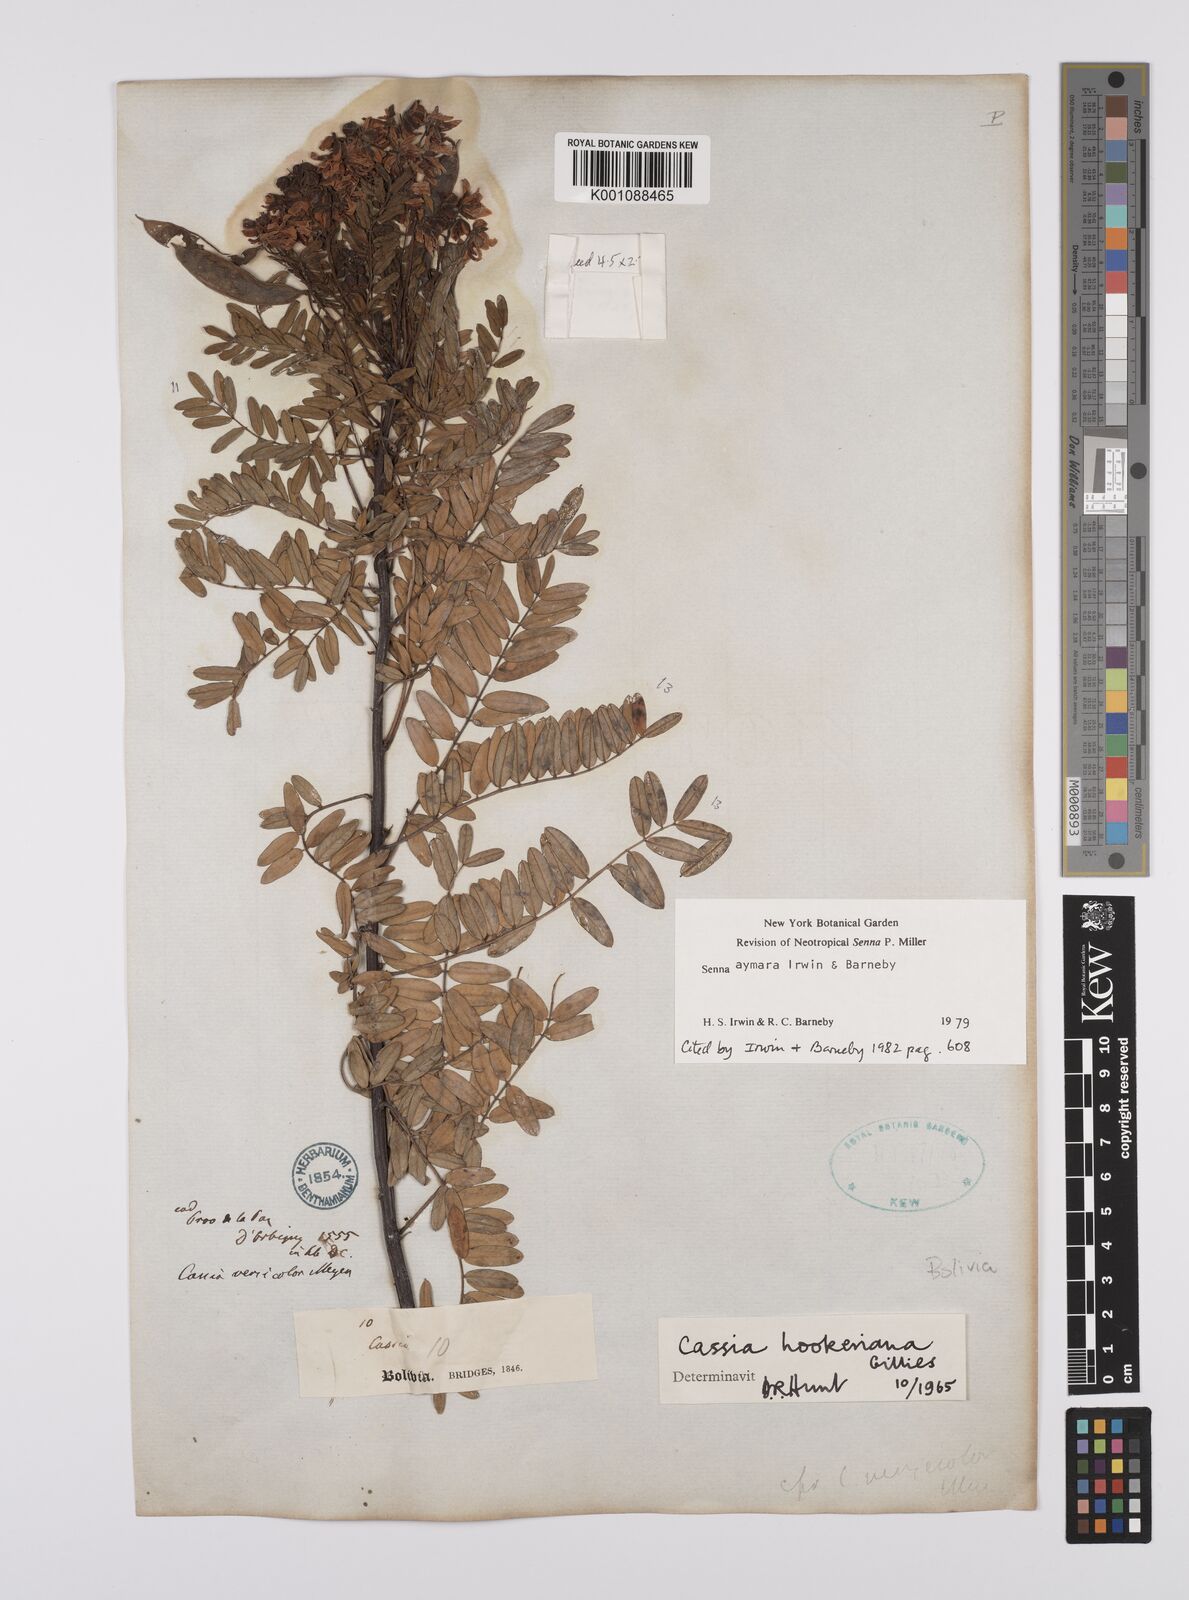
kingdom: Plantae
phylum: Tracheophyta
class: Magnoliopsida
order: Fabales
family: Fabaceae
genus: Senna
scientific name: Senna aymara
